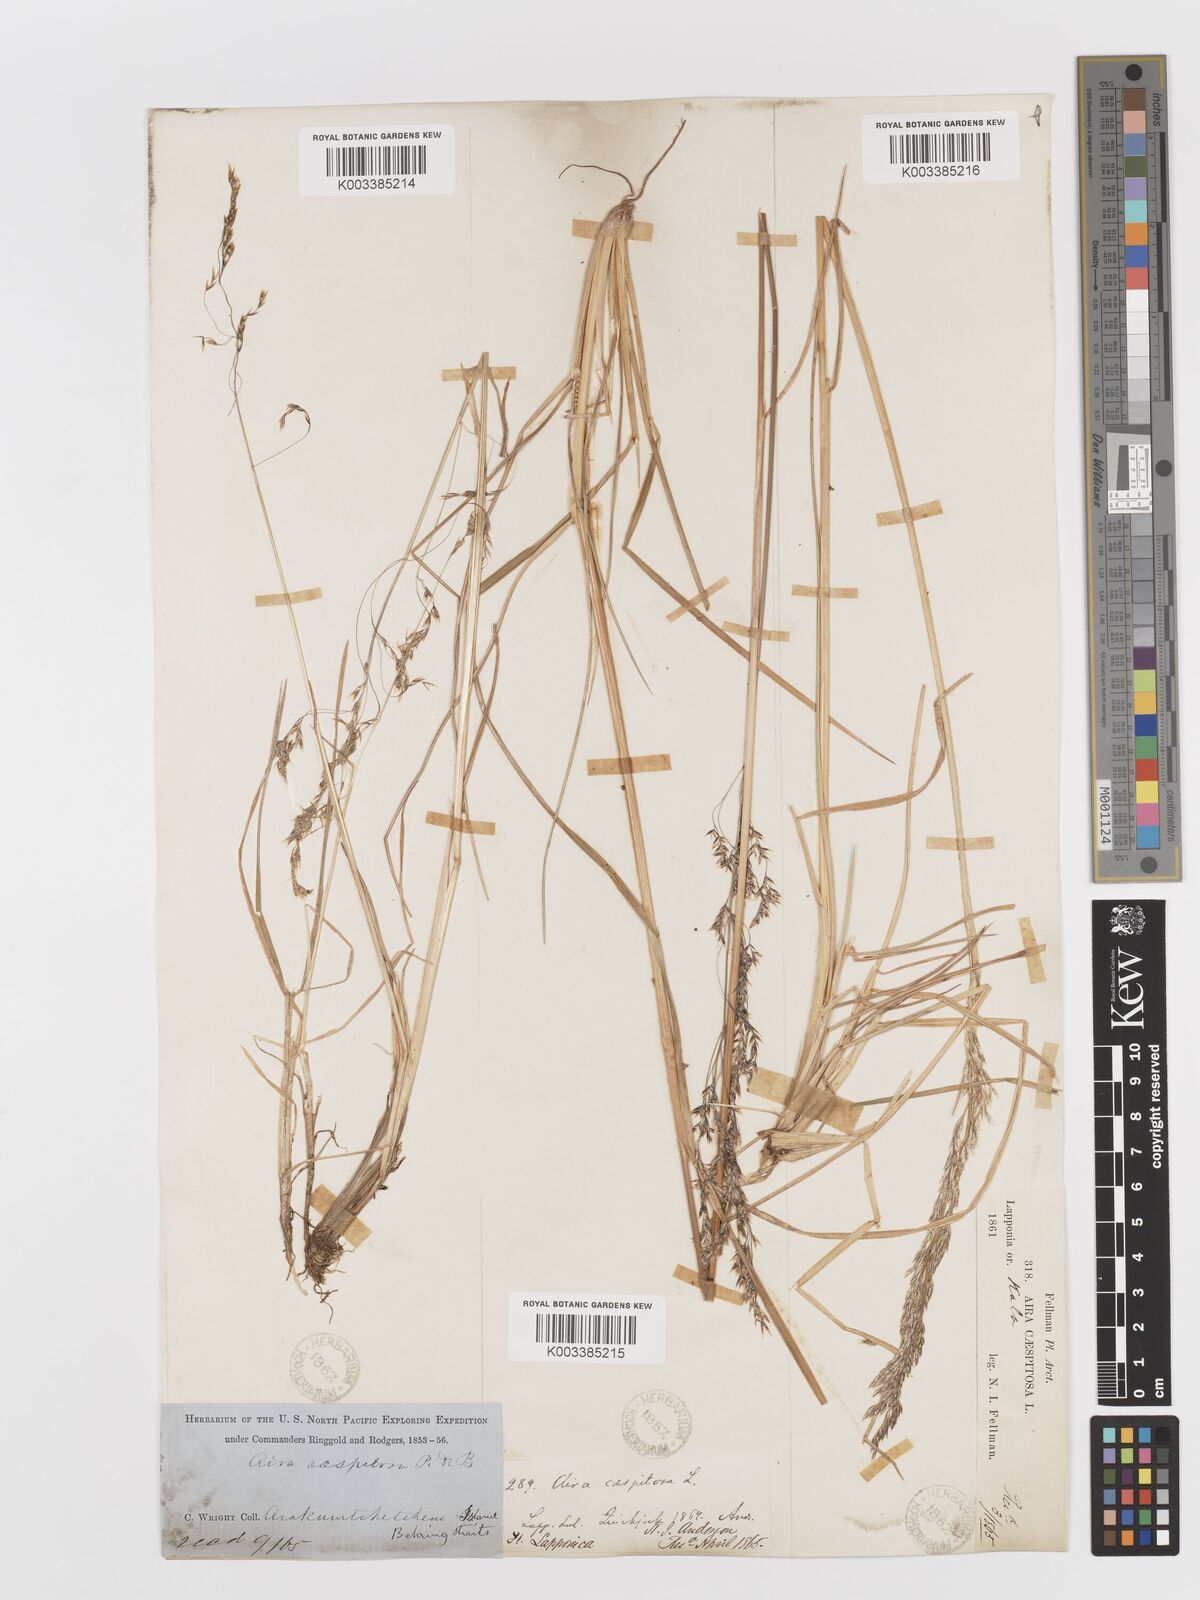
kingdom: Plantae
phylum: Tracheophyta
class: Liliopsida
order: Poales
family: Poaceae
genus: Deschampsia
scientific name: Deschampsia cespitosa
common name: Tufted hair-grass
